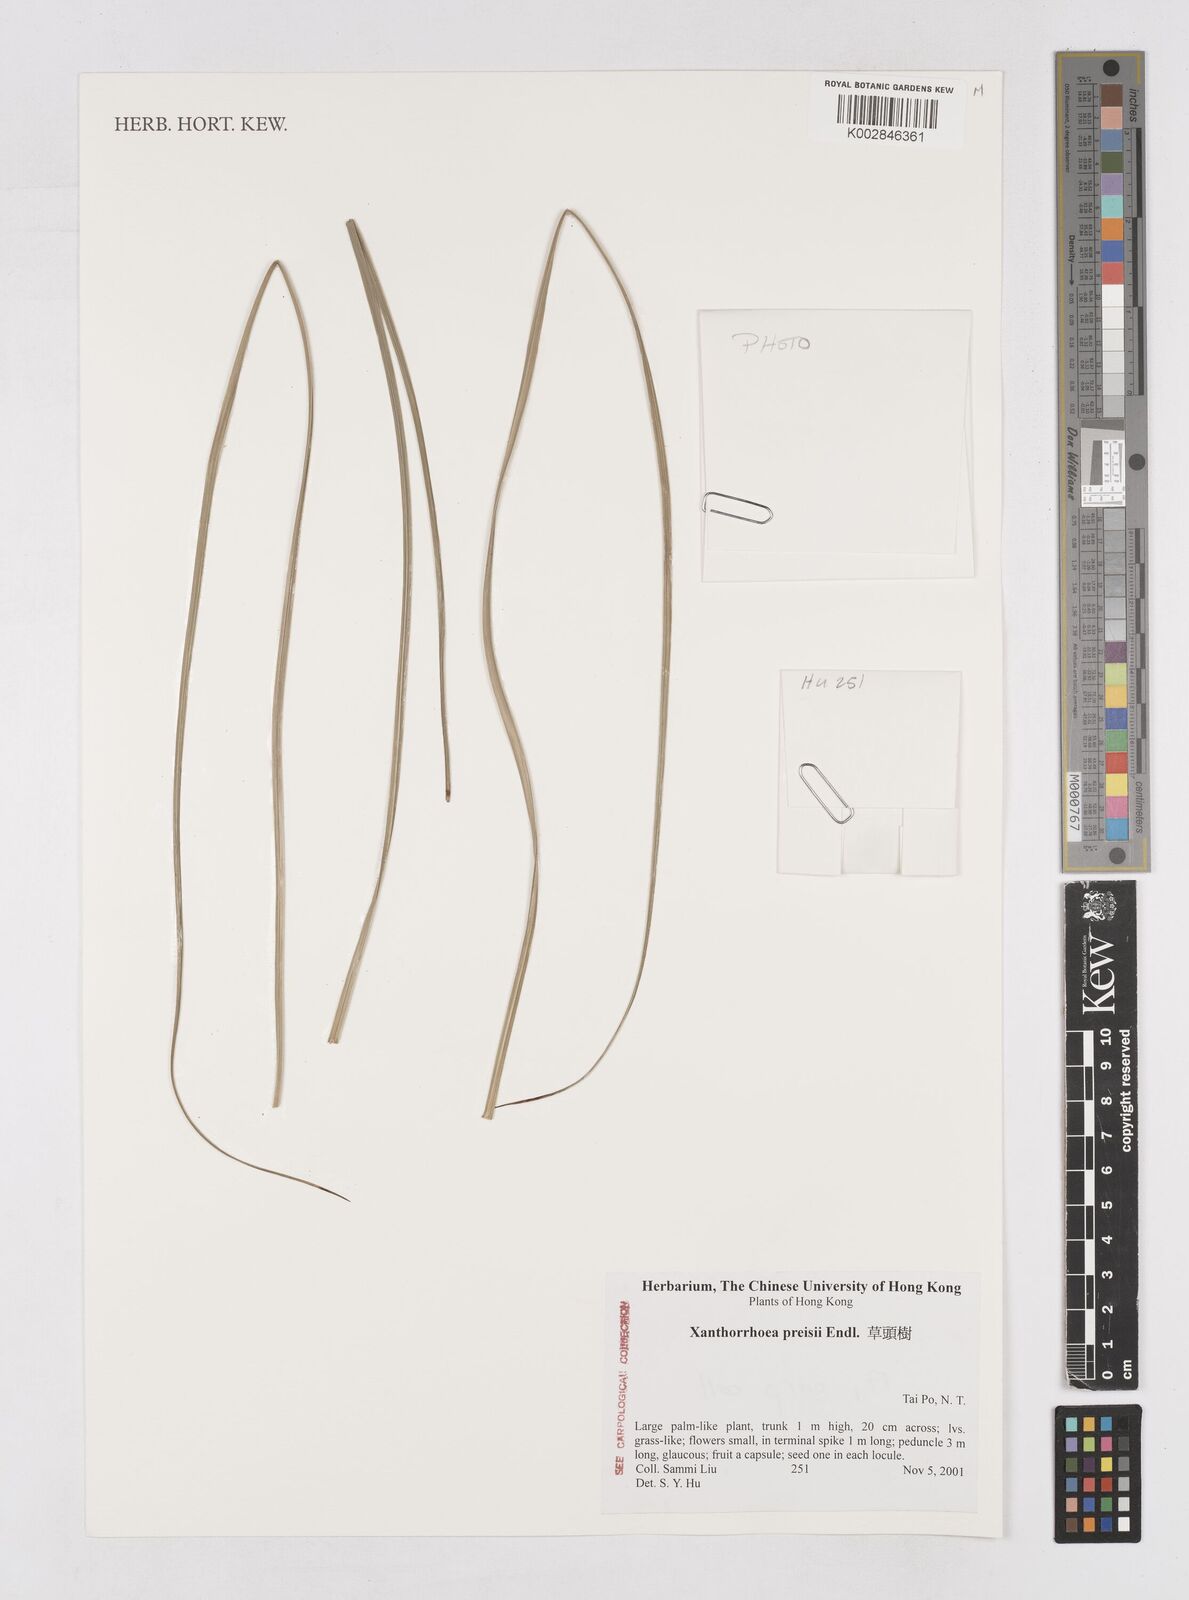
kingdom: Plantae
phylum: Tracheophyta
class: Liliopsida
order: Asparagales
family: Asphodelaceae
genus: Xanthorrhoea
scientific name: Xanthorrhoea preissii
